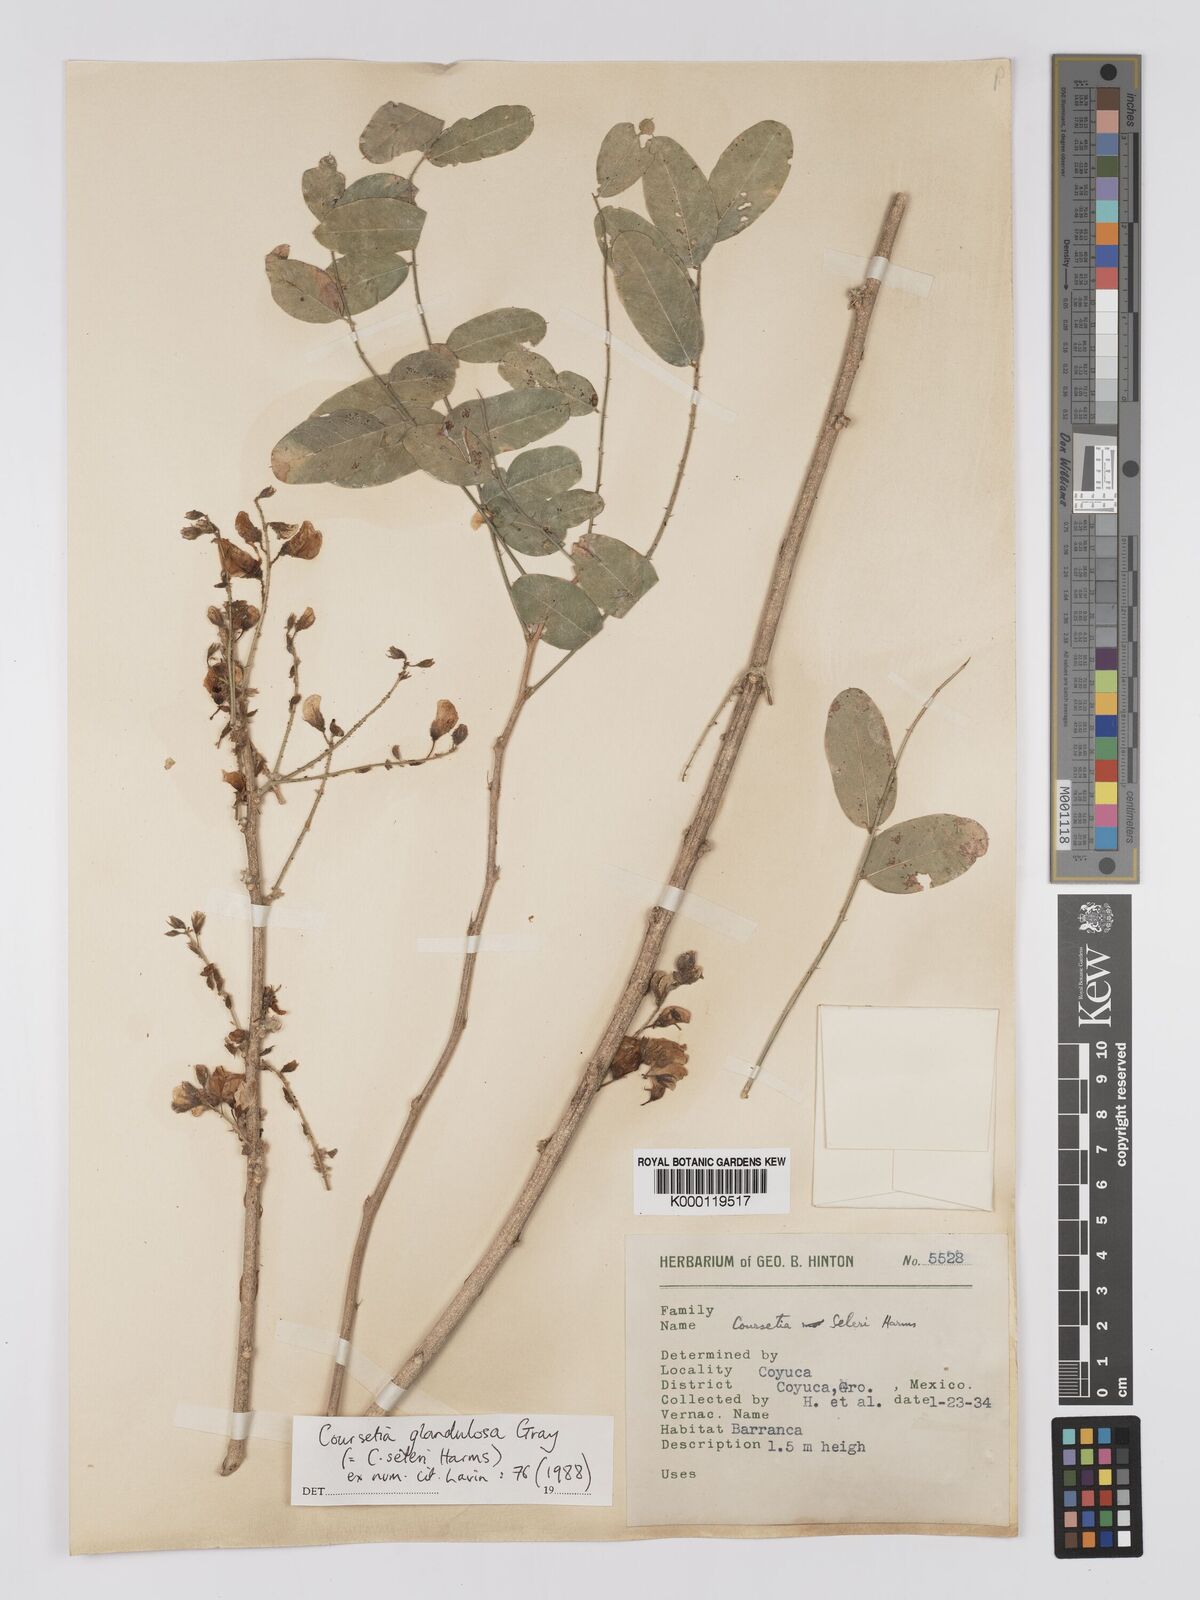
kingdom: Plantae
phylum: Tracheophyta
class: Magnoliopsida
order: Fabales
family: Fabaceae
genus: Coursetia
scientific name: Coursetia glandulosa
